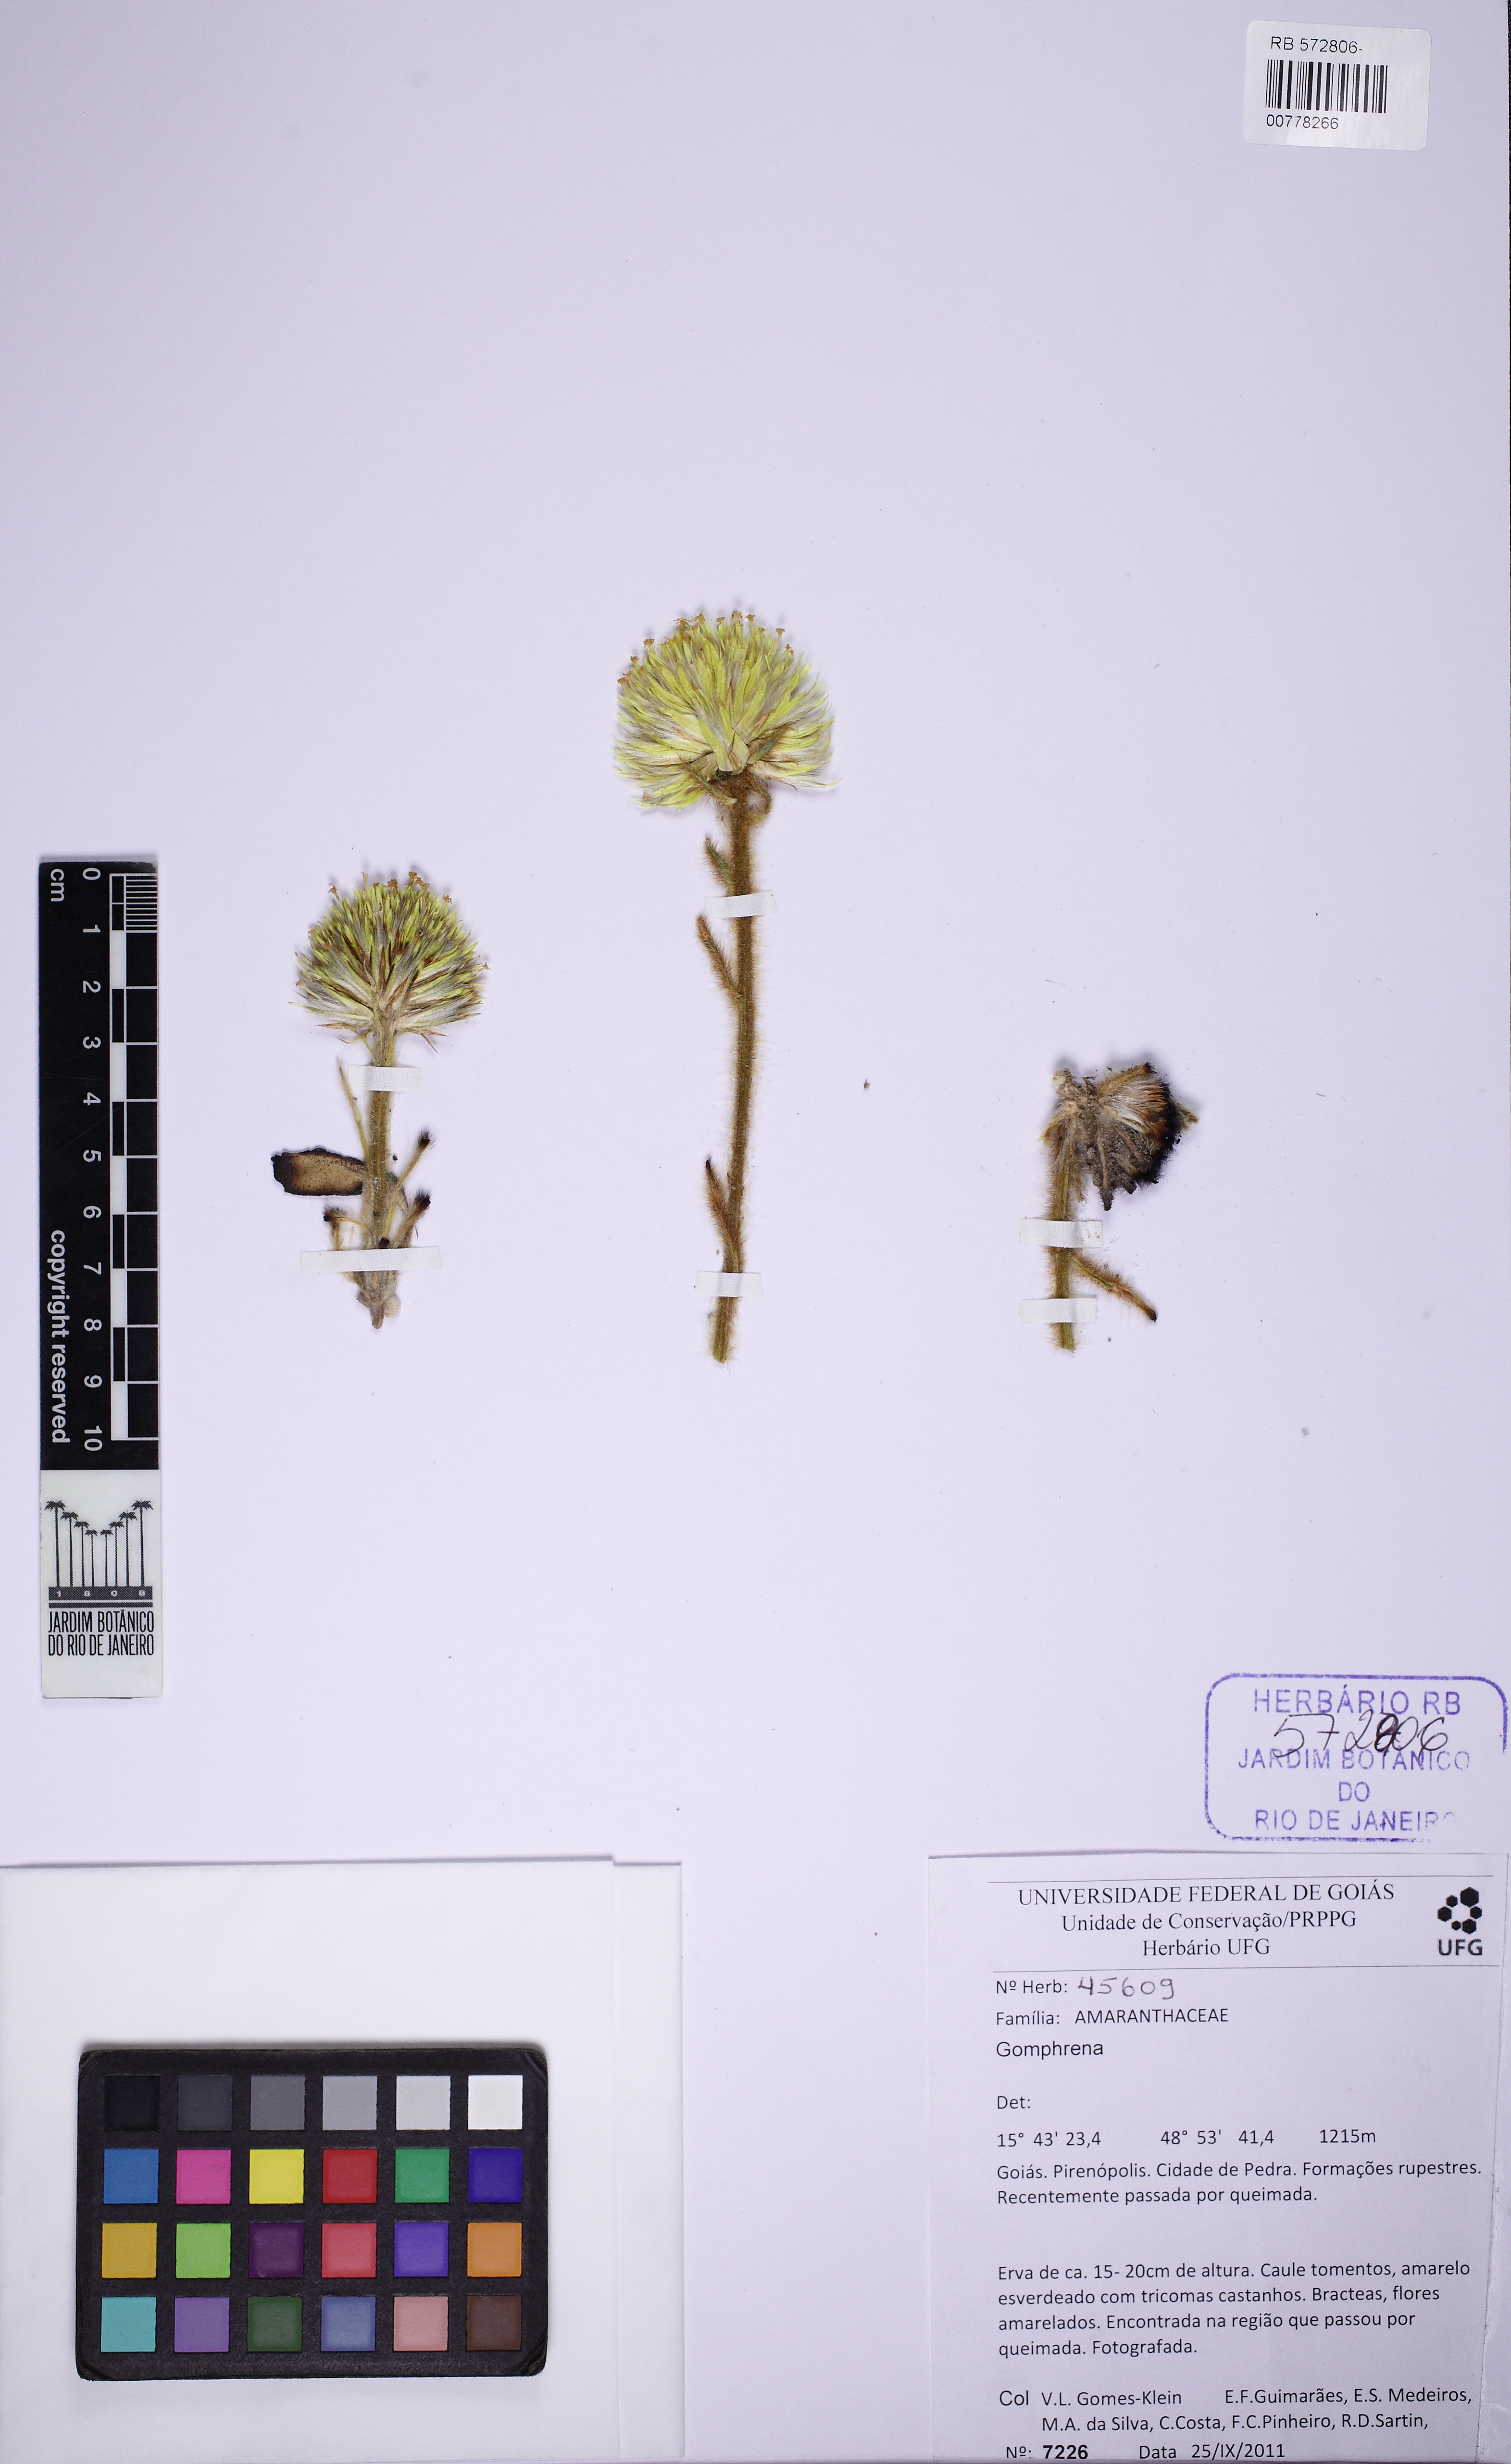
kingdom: Plantae
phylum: Tracheophyta
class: Magnoliopsida
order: Caryophyllales
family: Amaranthaceae
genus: Gomphrena
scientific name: Gomphrena
